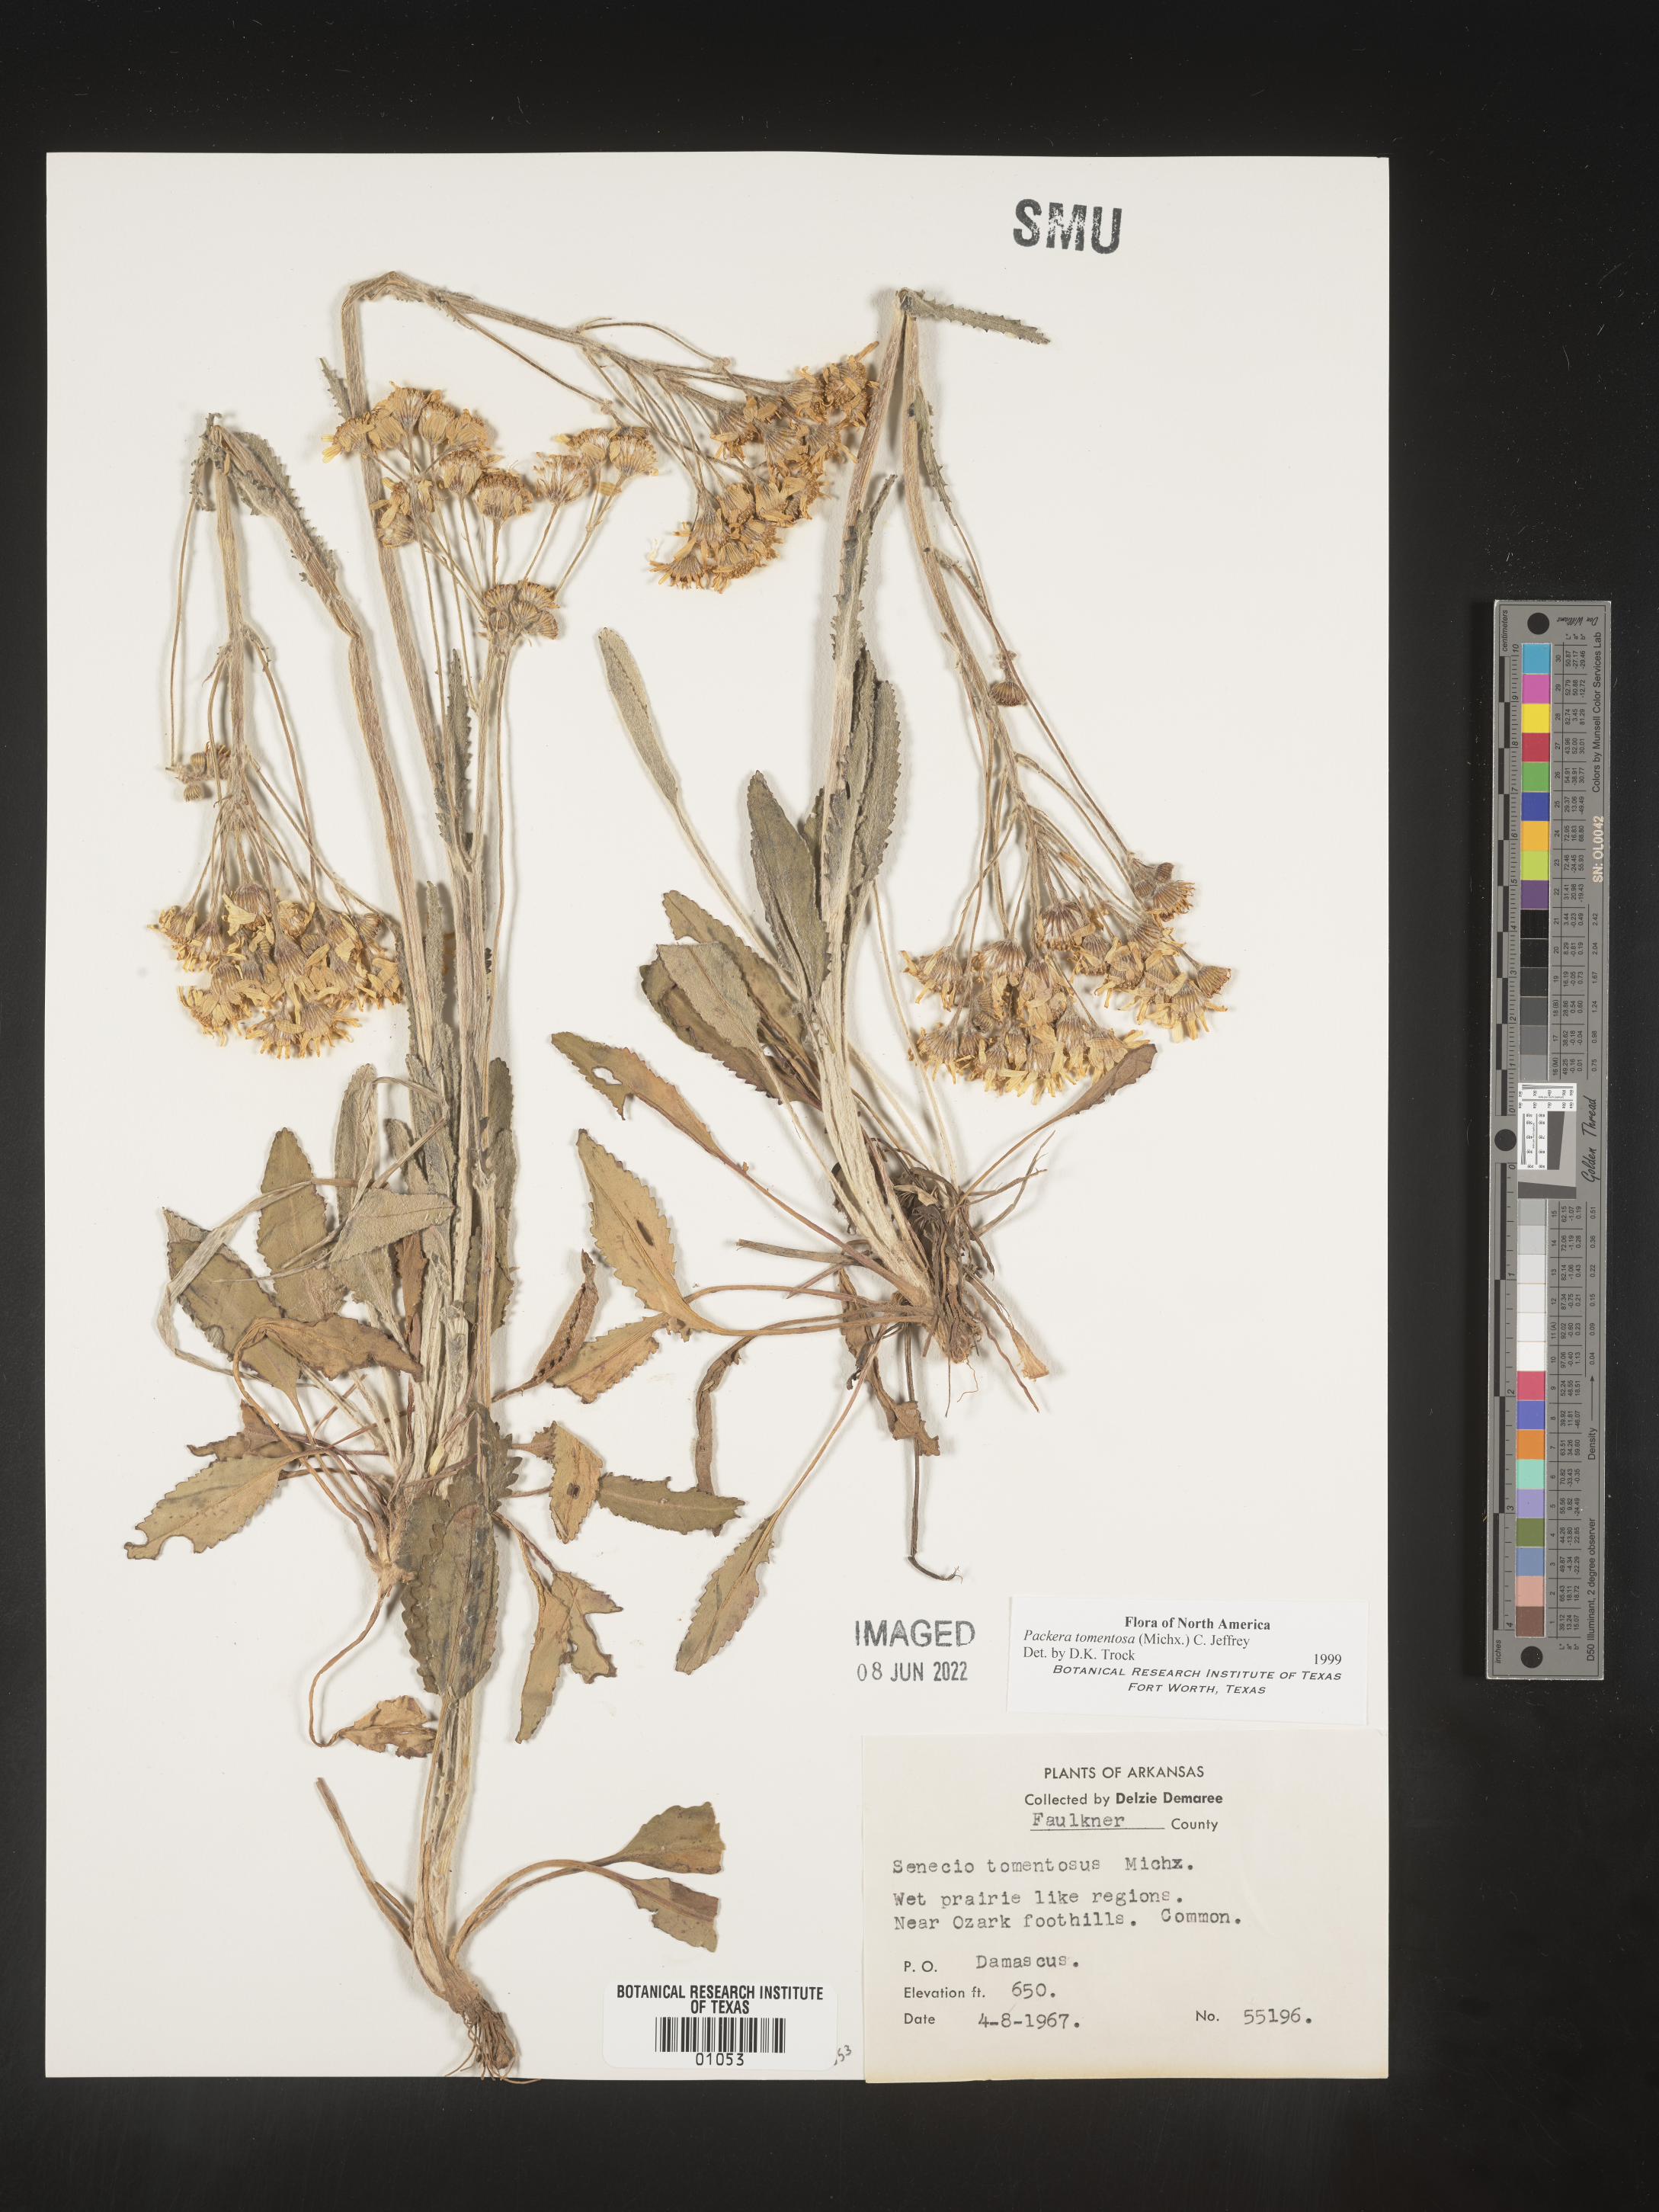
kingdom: Plantae
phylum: Tracheophyta
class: Magnoliopsida
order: Asterales
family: Asteraceae
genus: Packera
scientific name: Packera dubia
